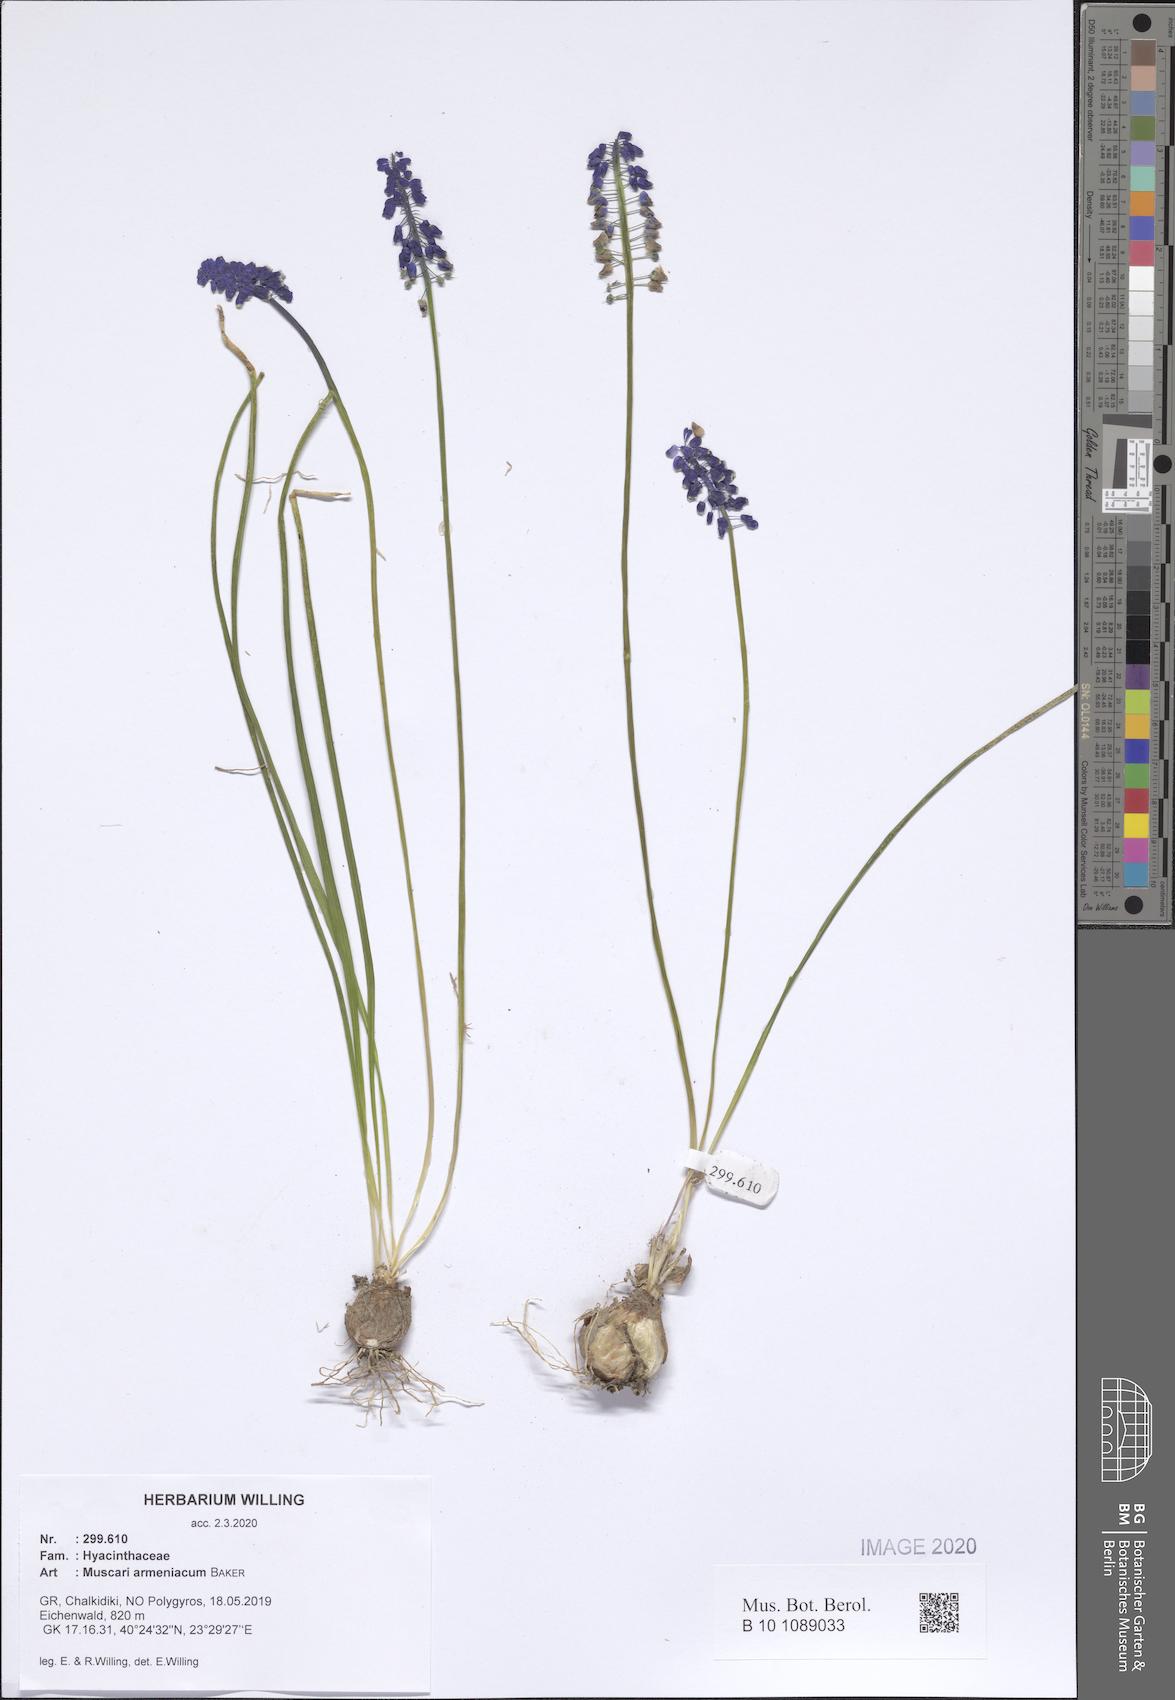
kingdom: Plantae
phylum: Tracheophyta
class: Liliopsida
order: Asparagales
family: Asparagaceae
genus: Muscari
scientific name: Muscari armeniacum
